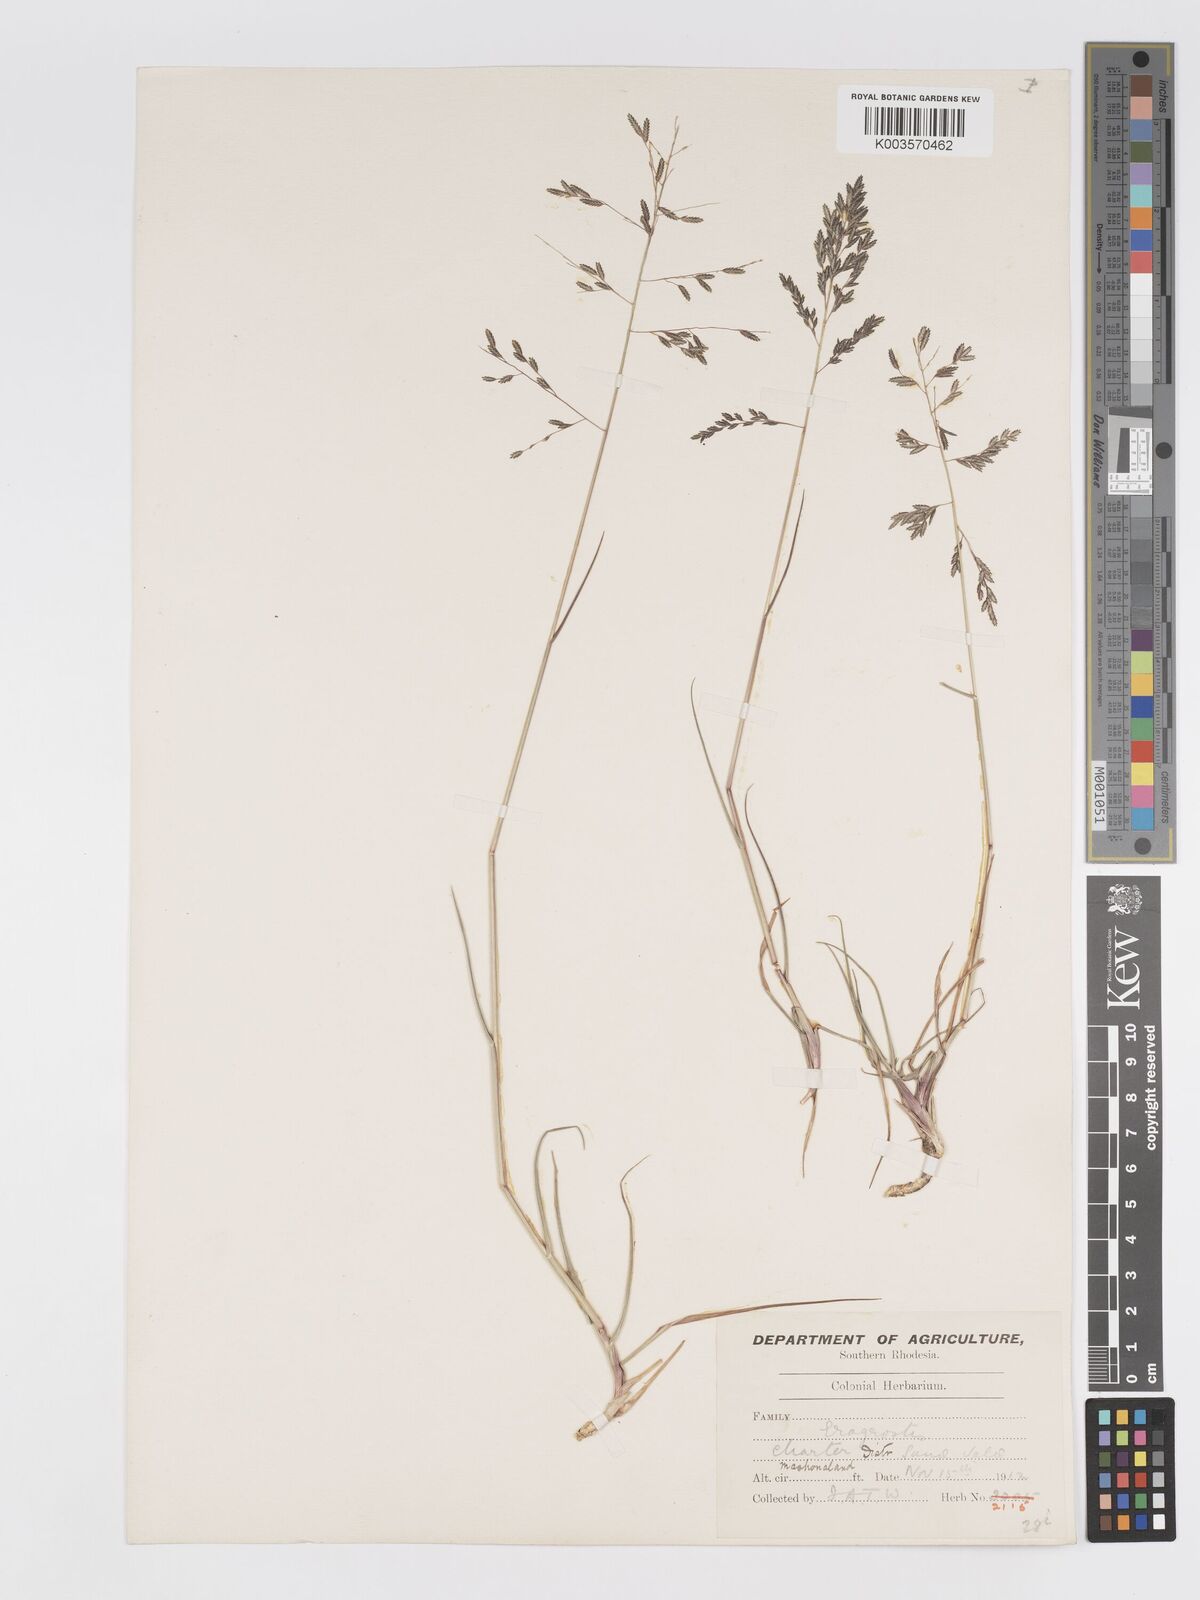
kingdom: Plantae
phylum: Tracheophyta
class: Liliopsida
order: Poales
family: Poaceae
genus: Eragrostis
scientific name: Eragrostis inamoena
